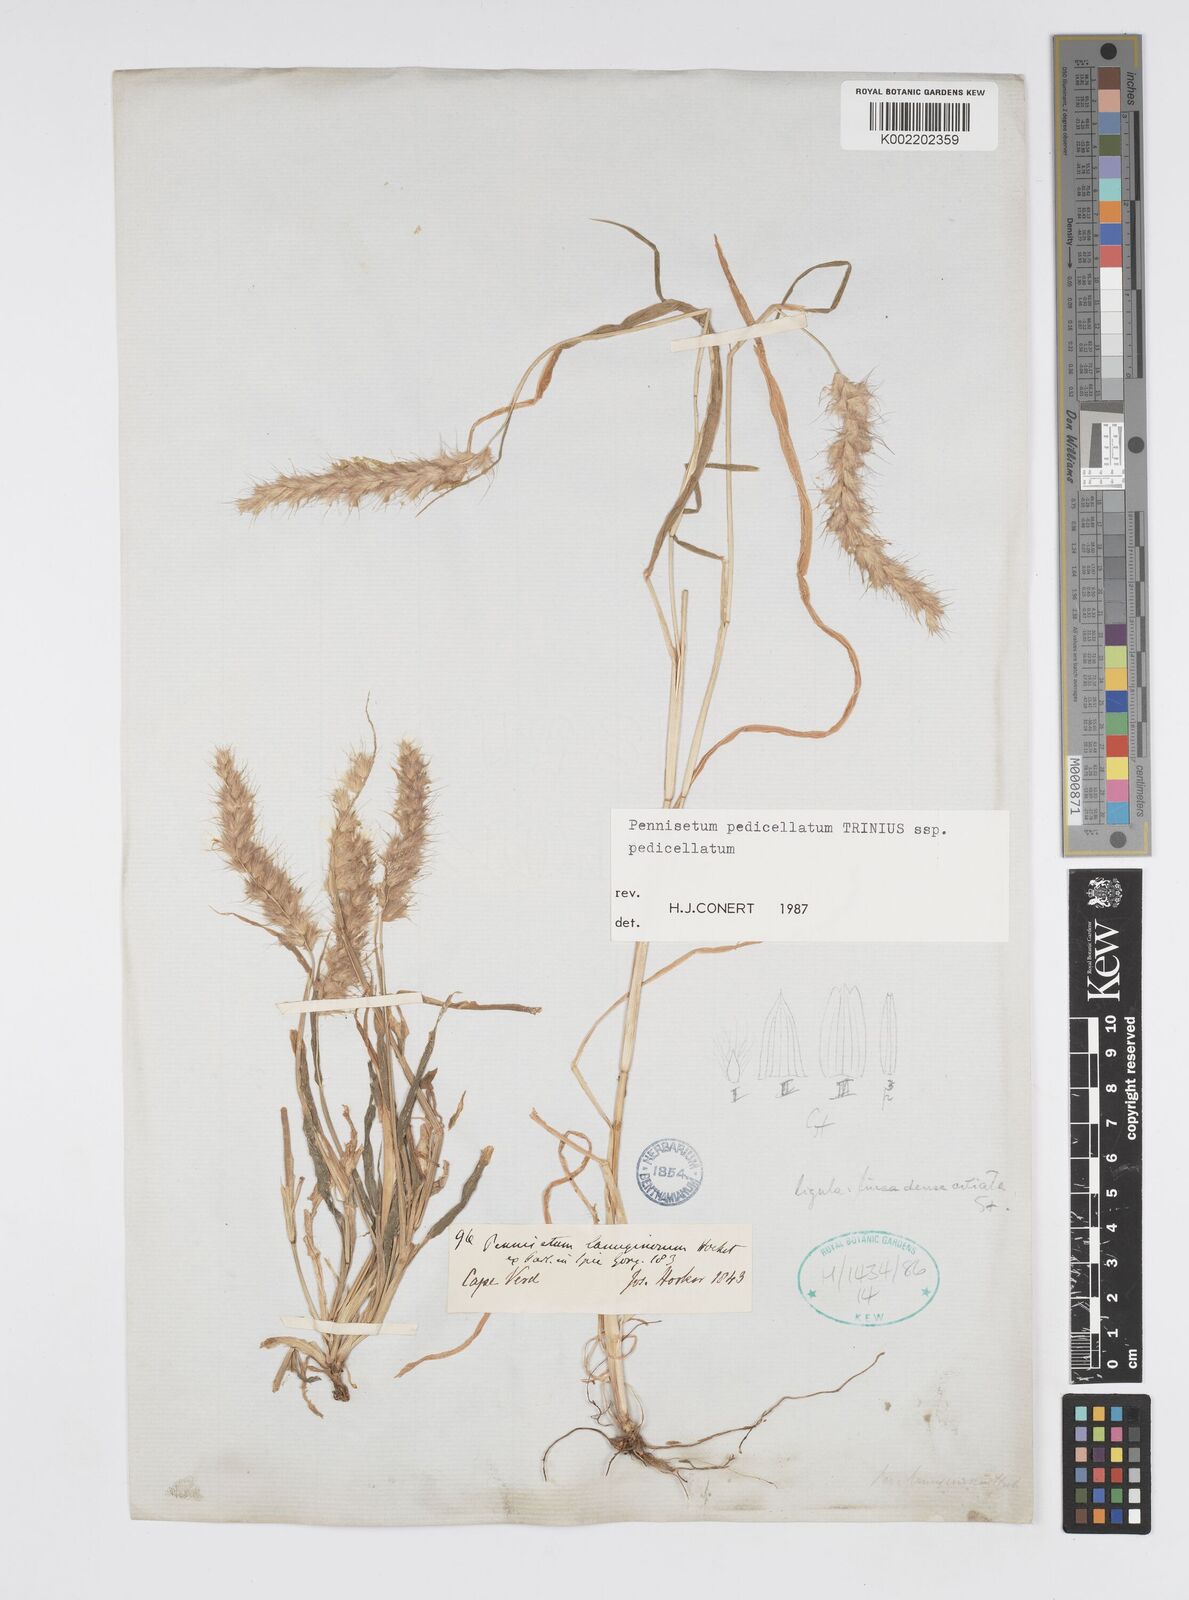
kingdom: Plantae
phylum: Tracheophyta
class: Liliopsida
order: Poales
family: Poaceae
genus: Cenchrus
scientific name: Cenchrus pedicellatus
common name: Hairy fountain grass
